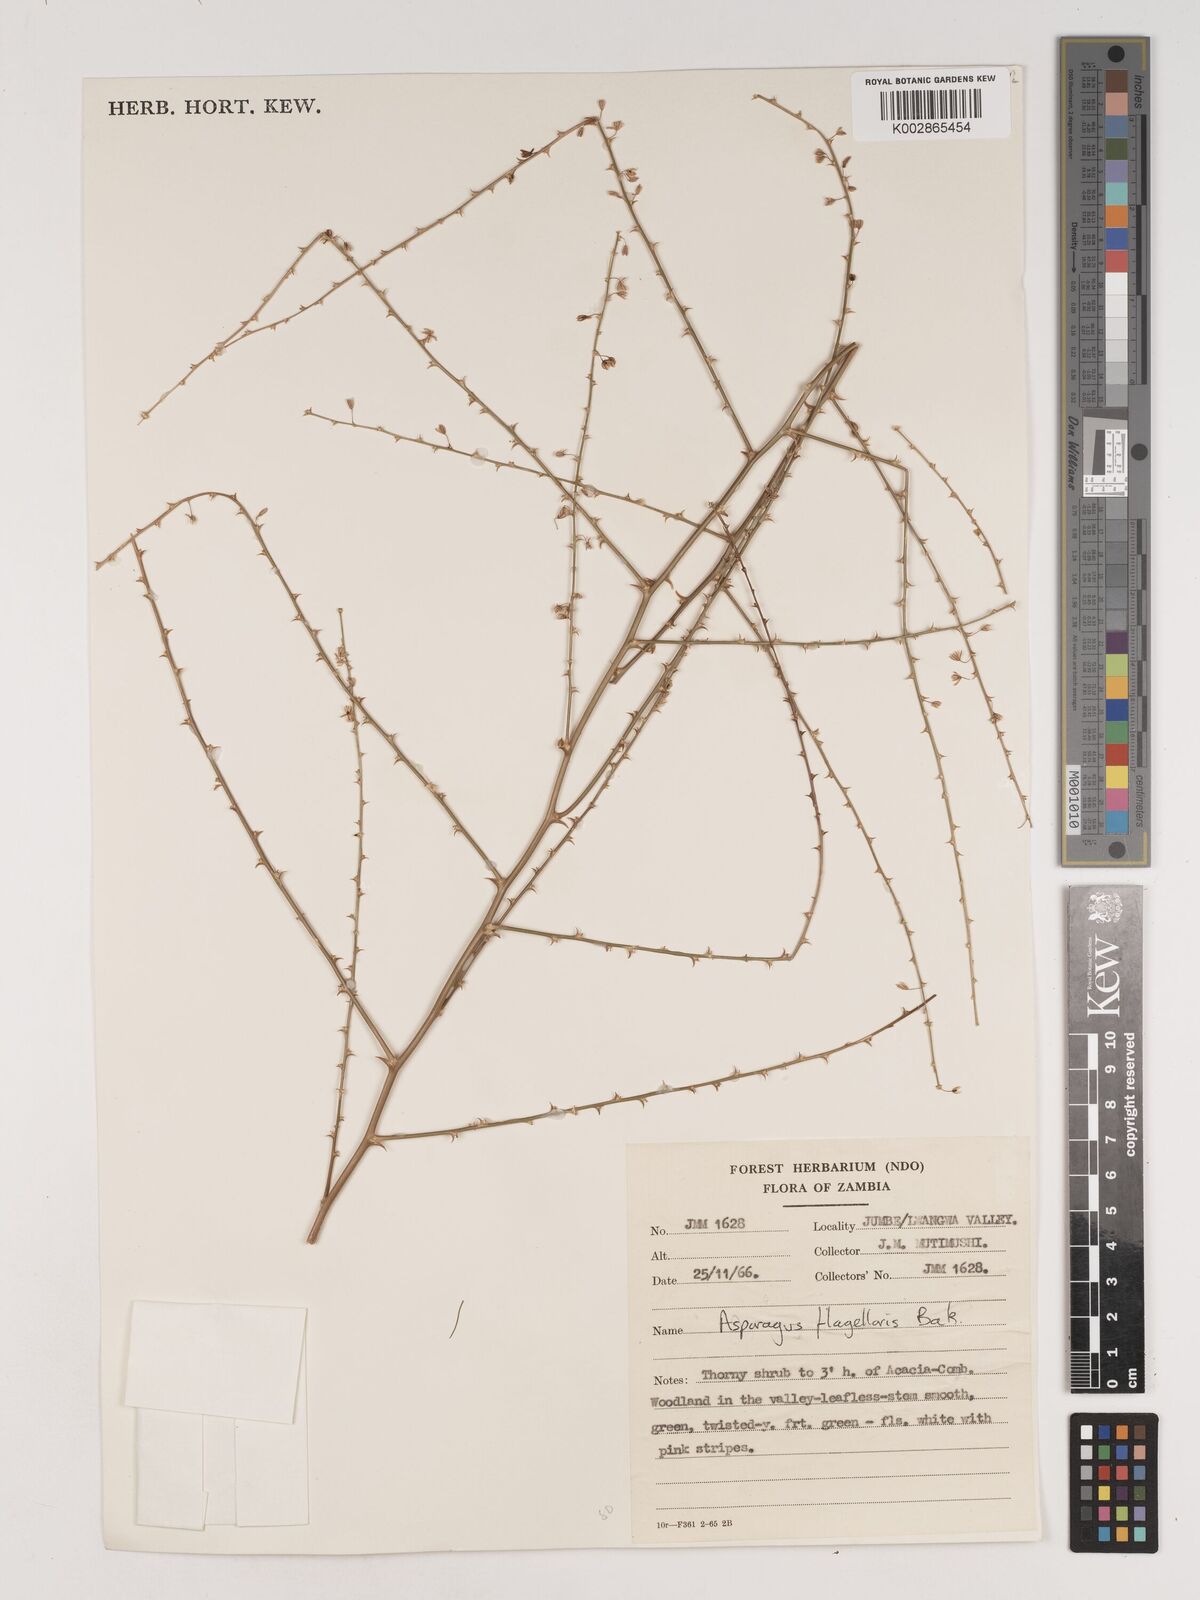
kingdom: Plantae
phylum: Tracheophyta
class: Liliopsida
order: Asparagales
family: Asparagaceae
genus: Asparagus
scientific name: Asparagus flagellaris
